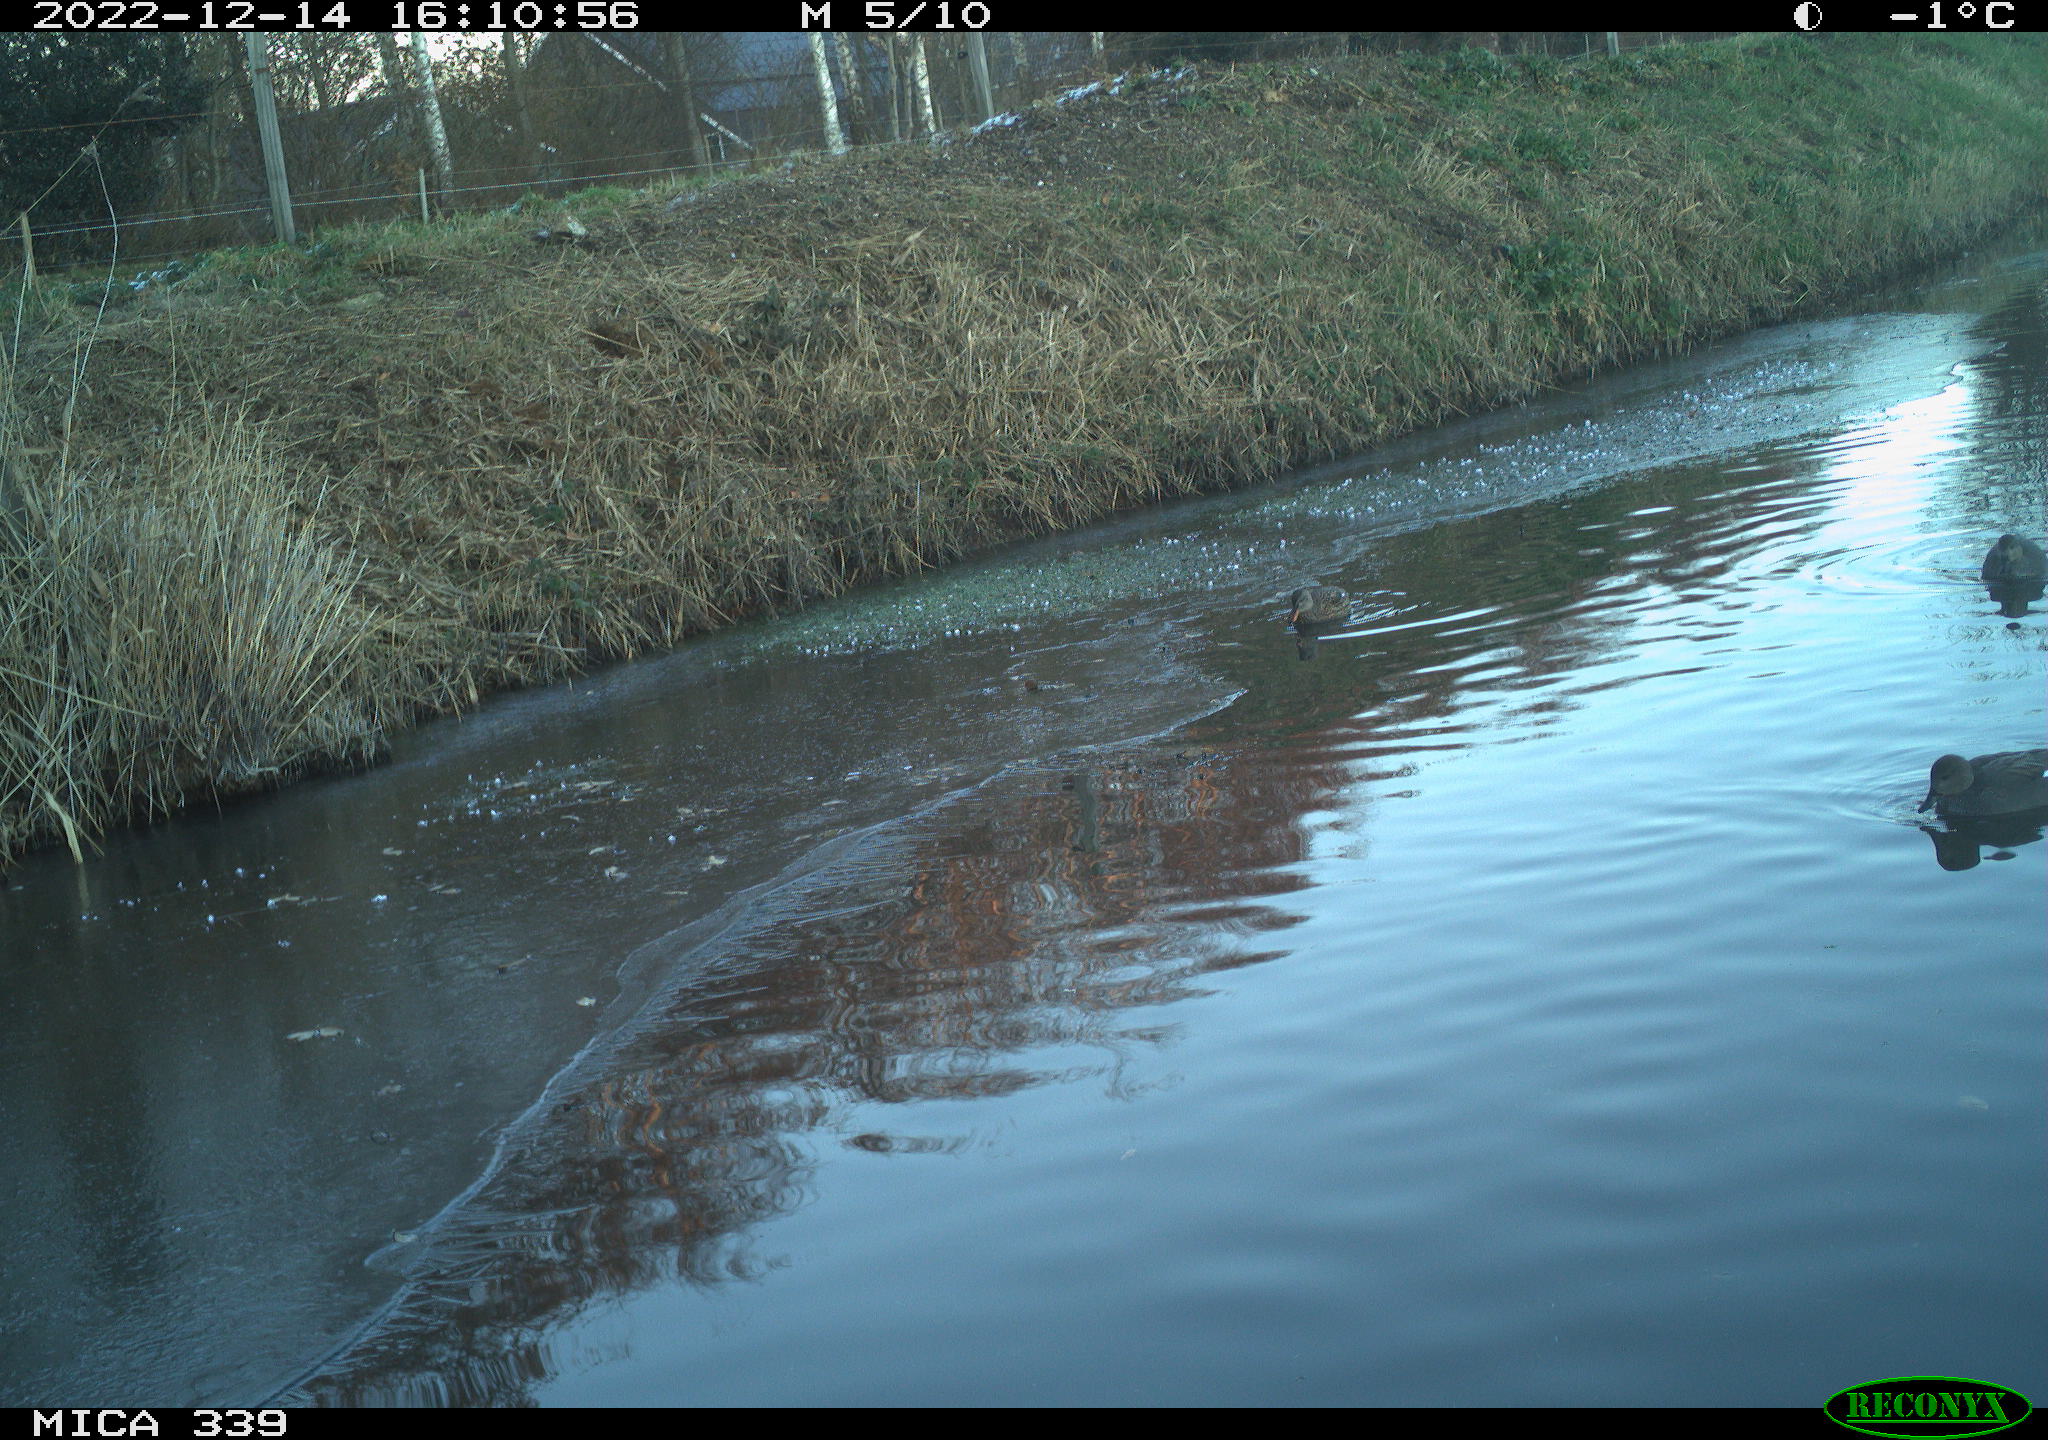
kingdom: Animalia
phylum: Chordata
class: Aves
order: Anseriformes
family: Anatidae
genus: Anas
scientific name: Anas
